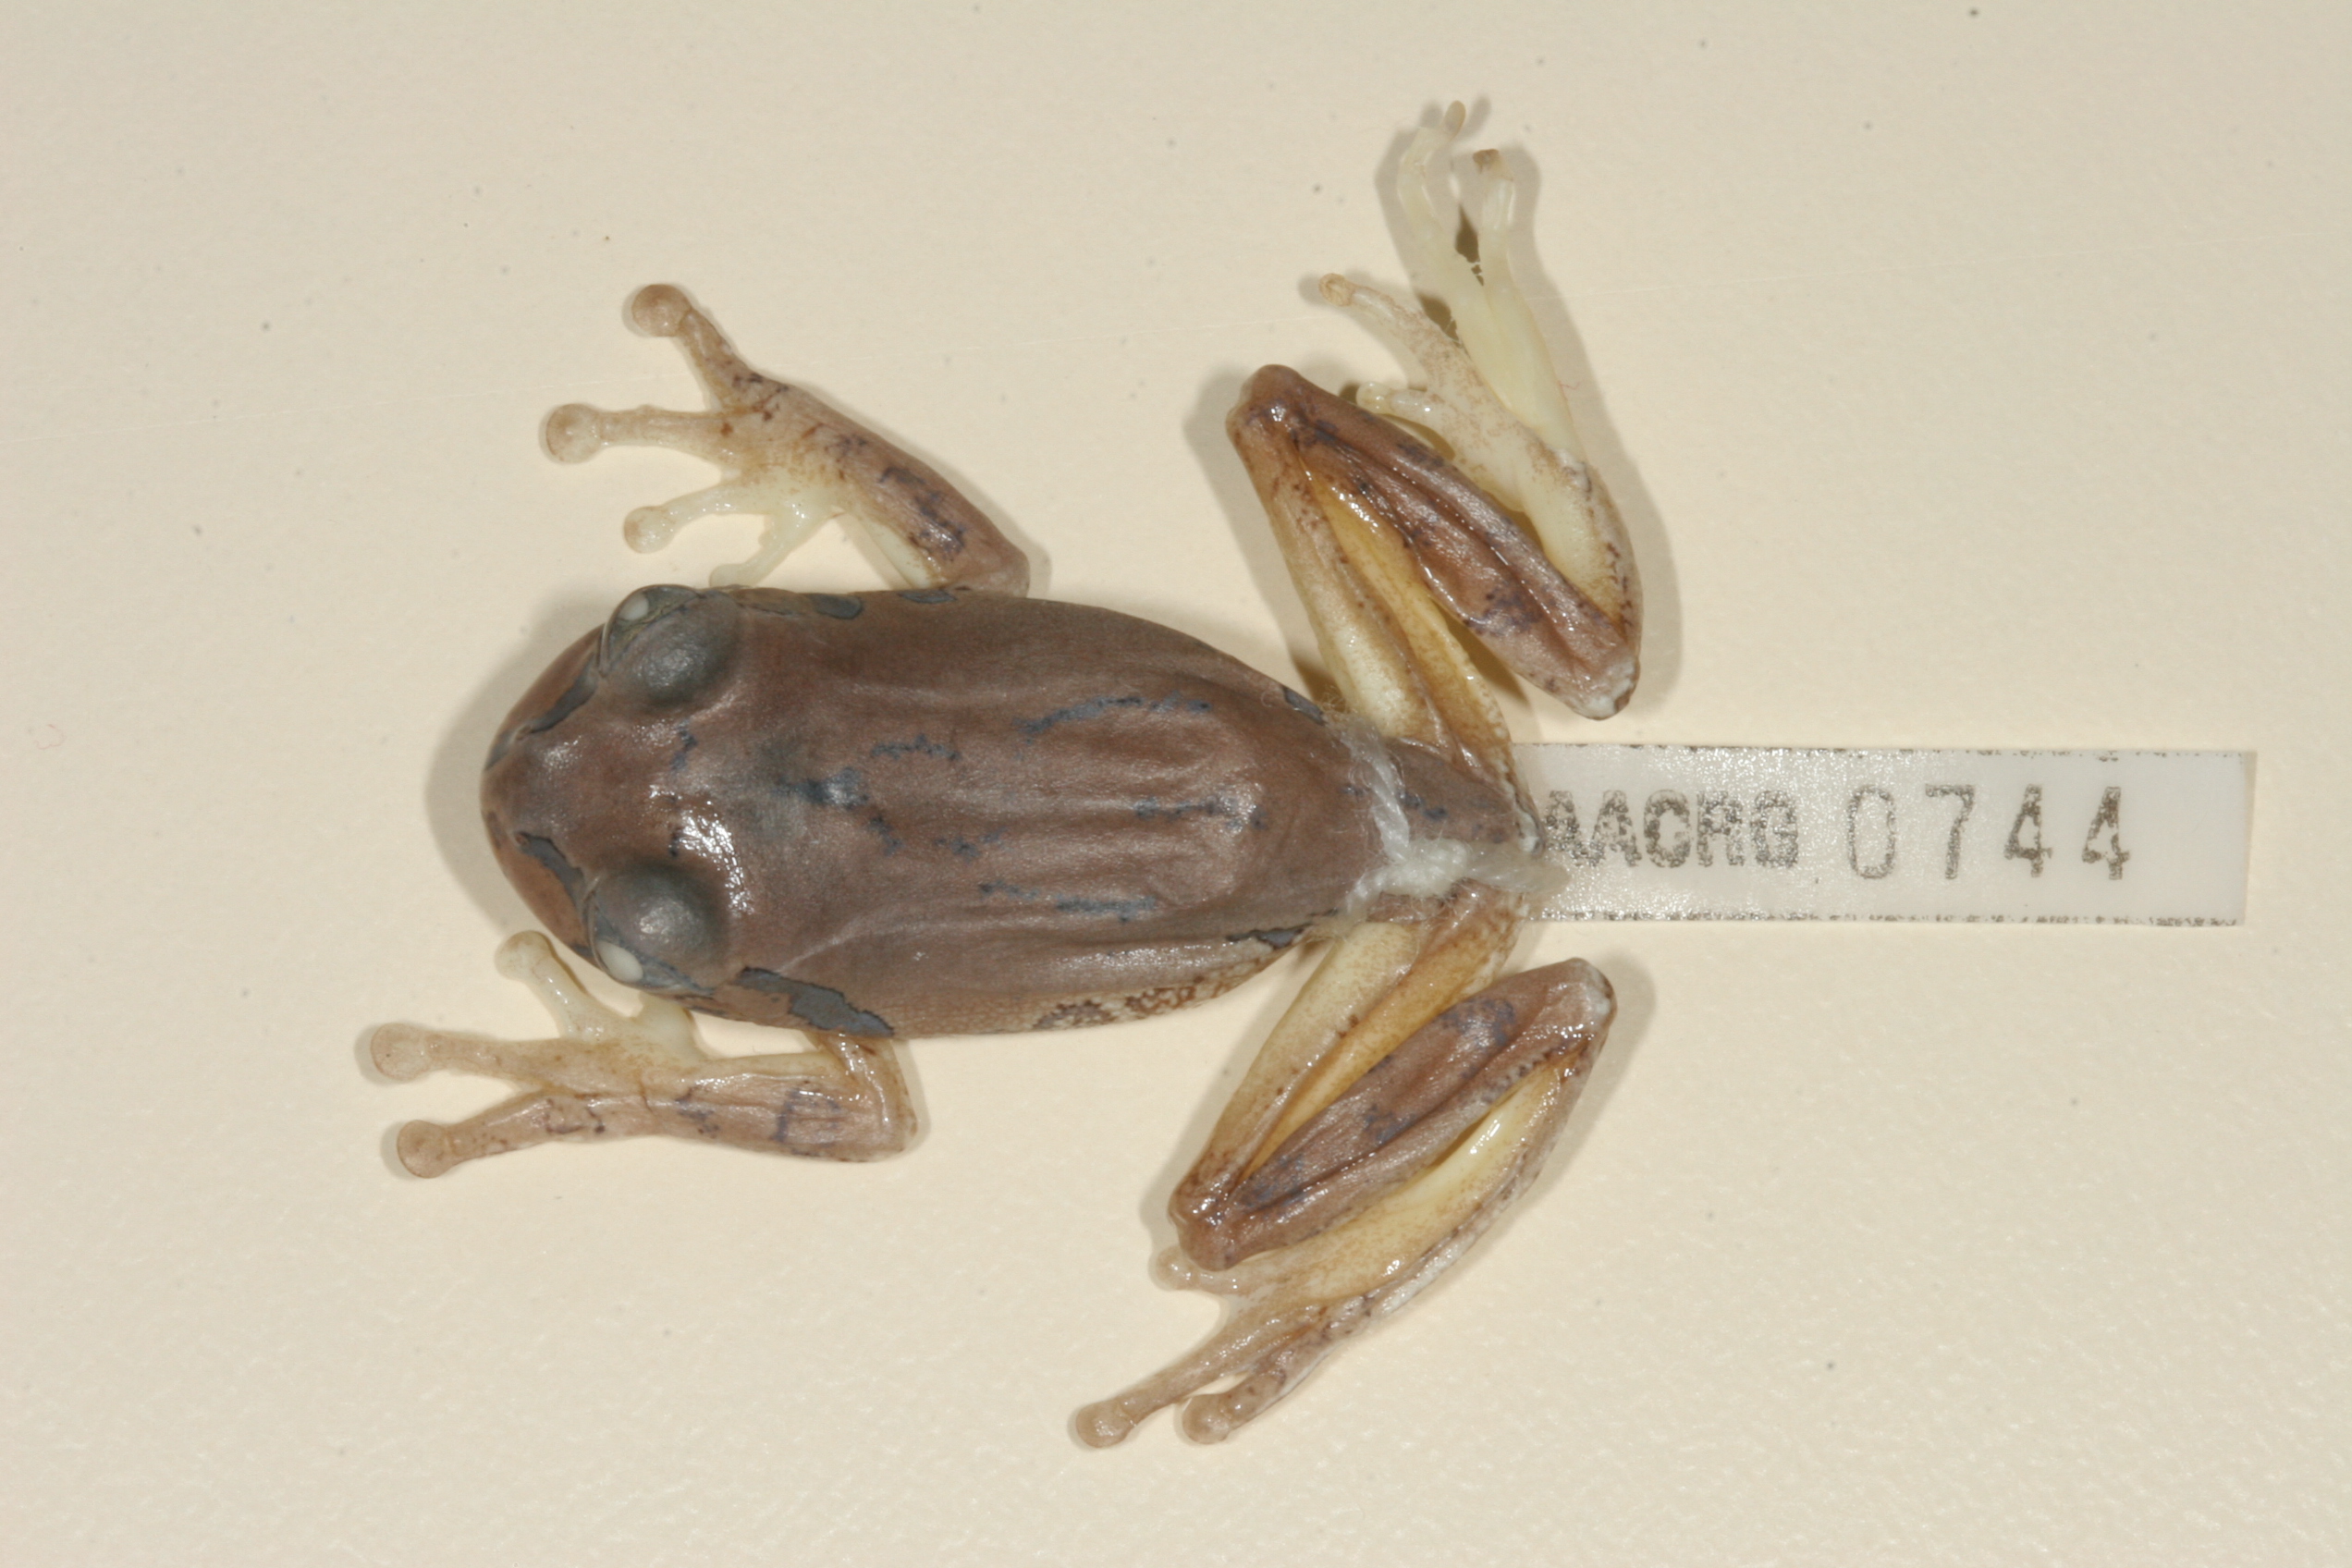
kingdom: Animalia
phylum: Chordata
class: Amphibia
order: Anura
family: Arthroleptidae
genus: Leptopelis
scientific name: Leptopelis natalensis
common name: Natal tree frog
